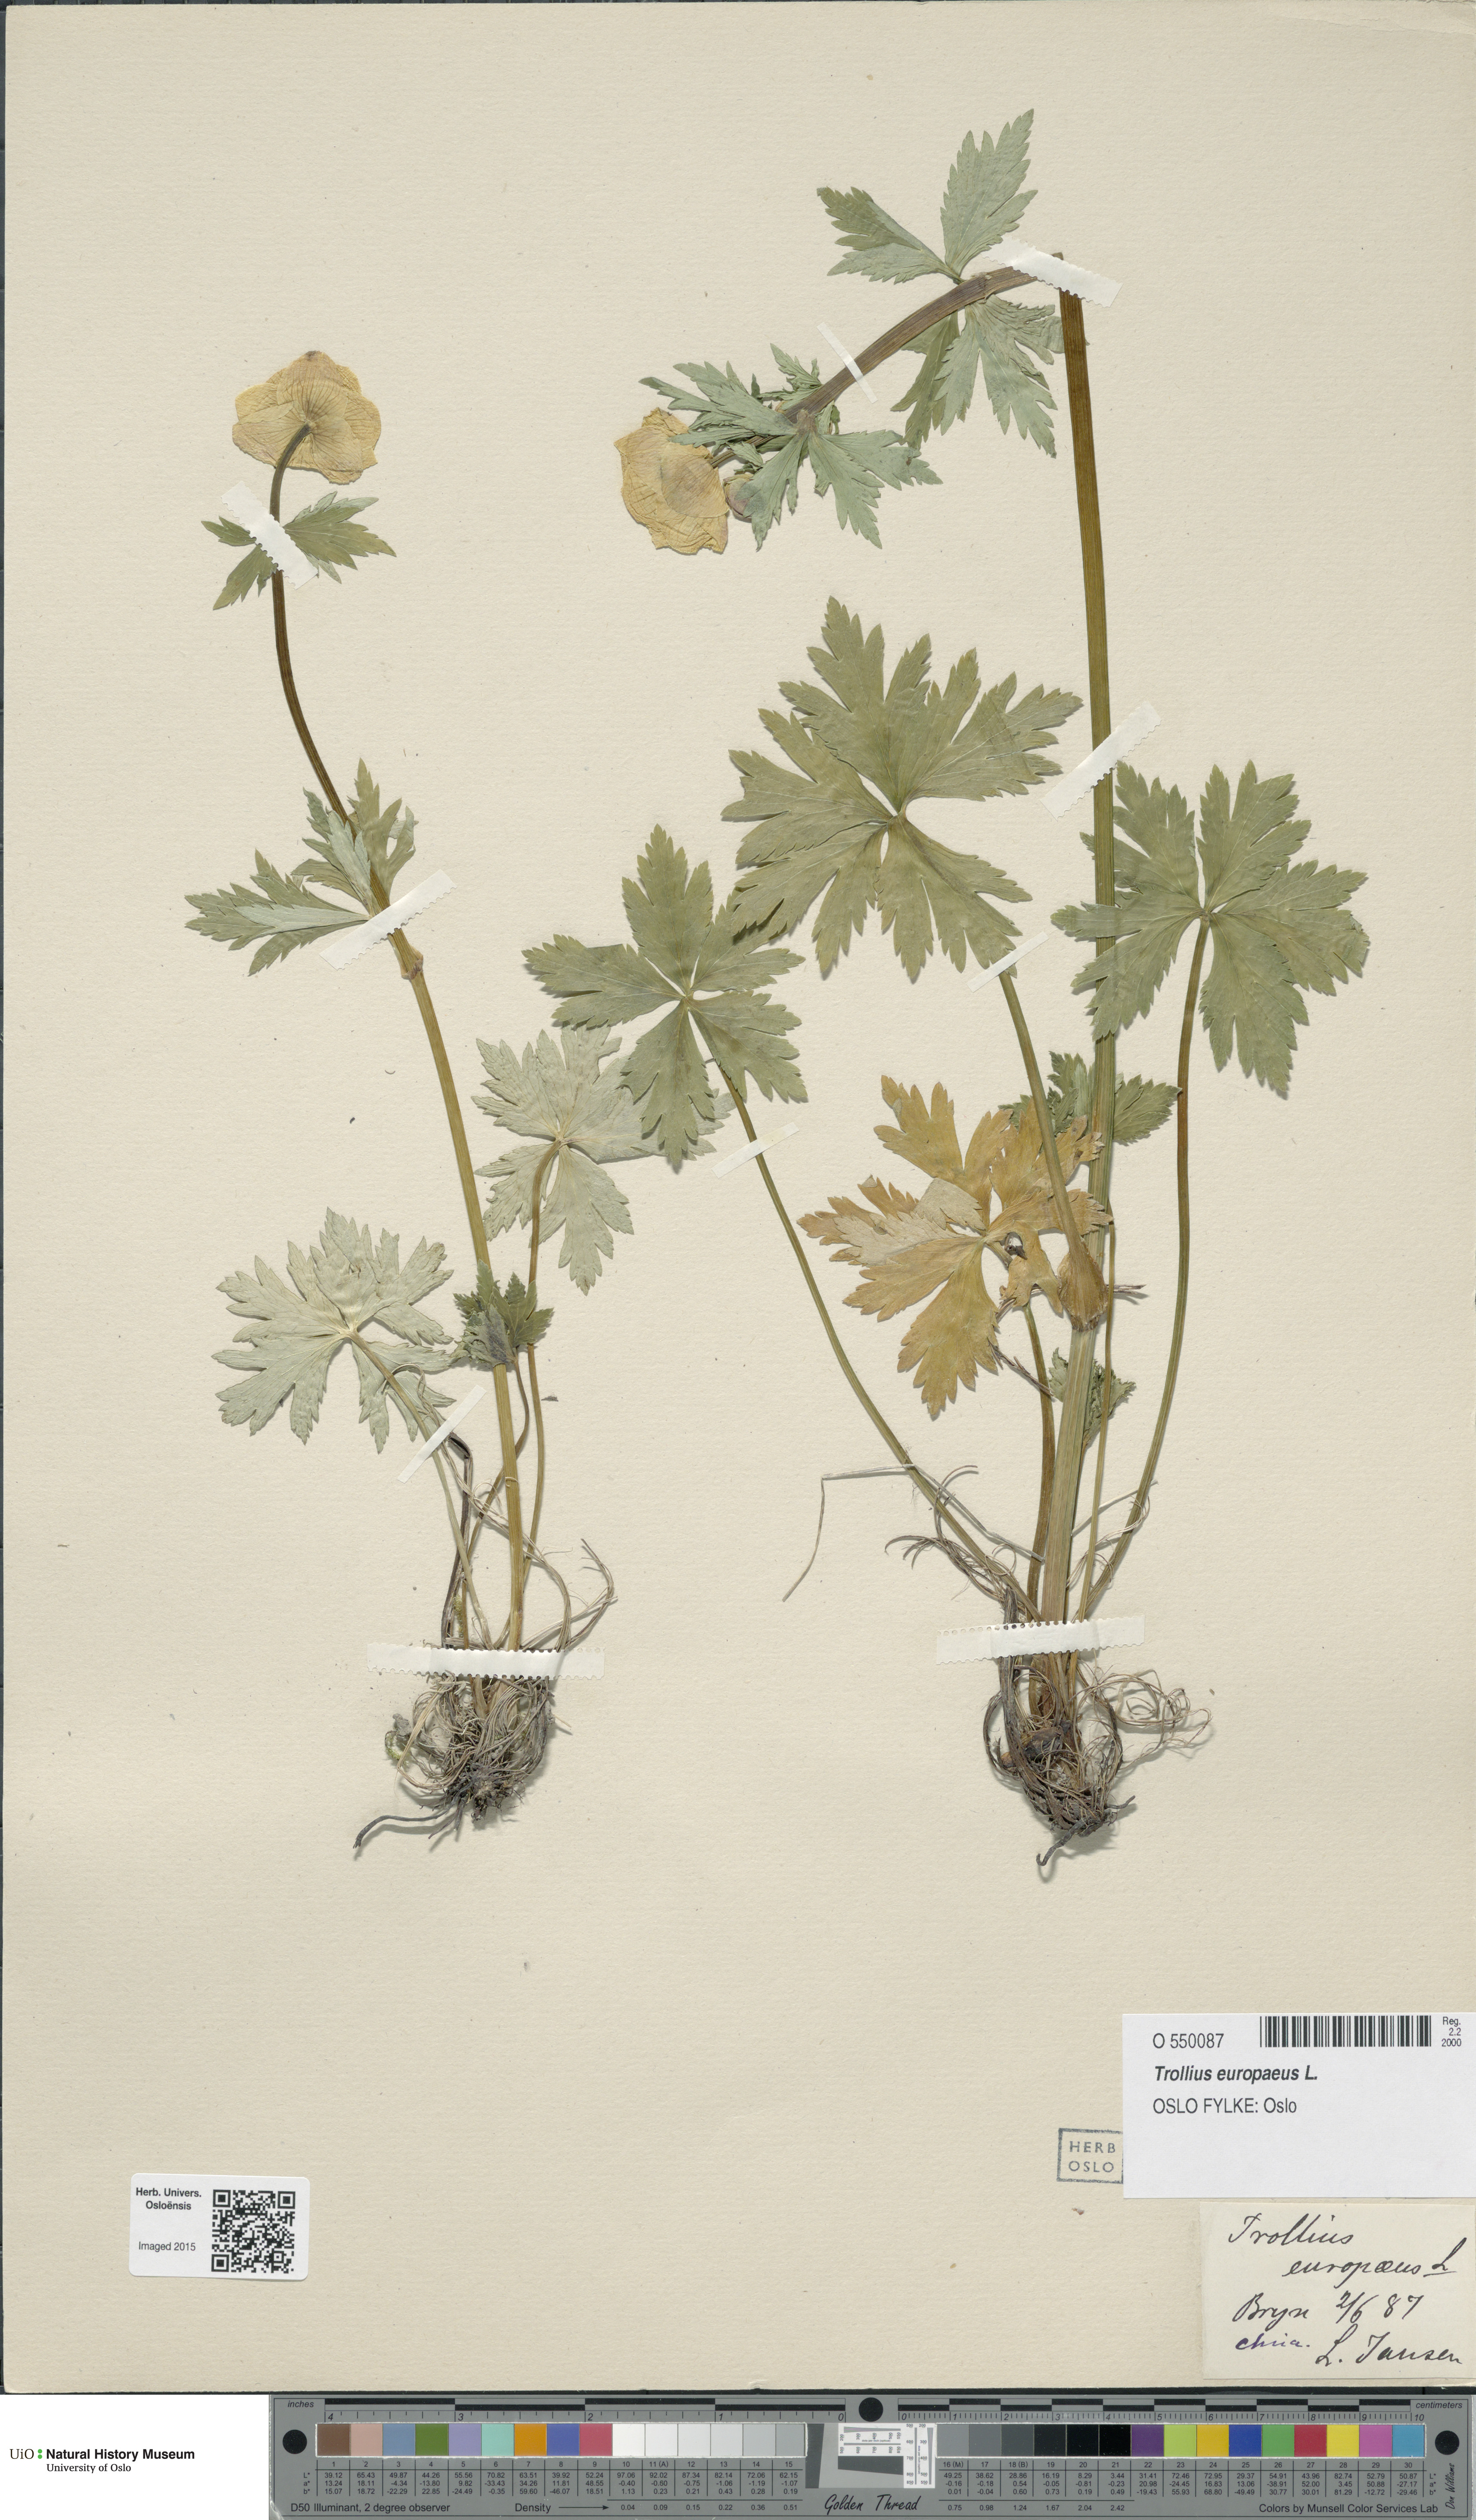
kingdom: Plantae
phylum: Tracheophyta
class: Magnoliopsida
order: Ranunculales
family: Ranunculaceae
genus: Trollius
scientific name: Trollius europaeus
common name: European globeflower
